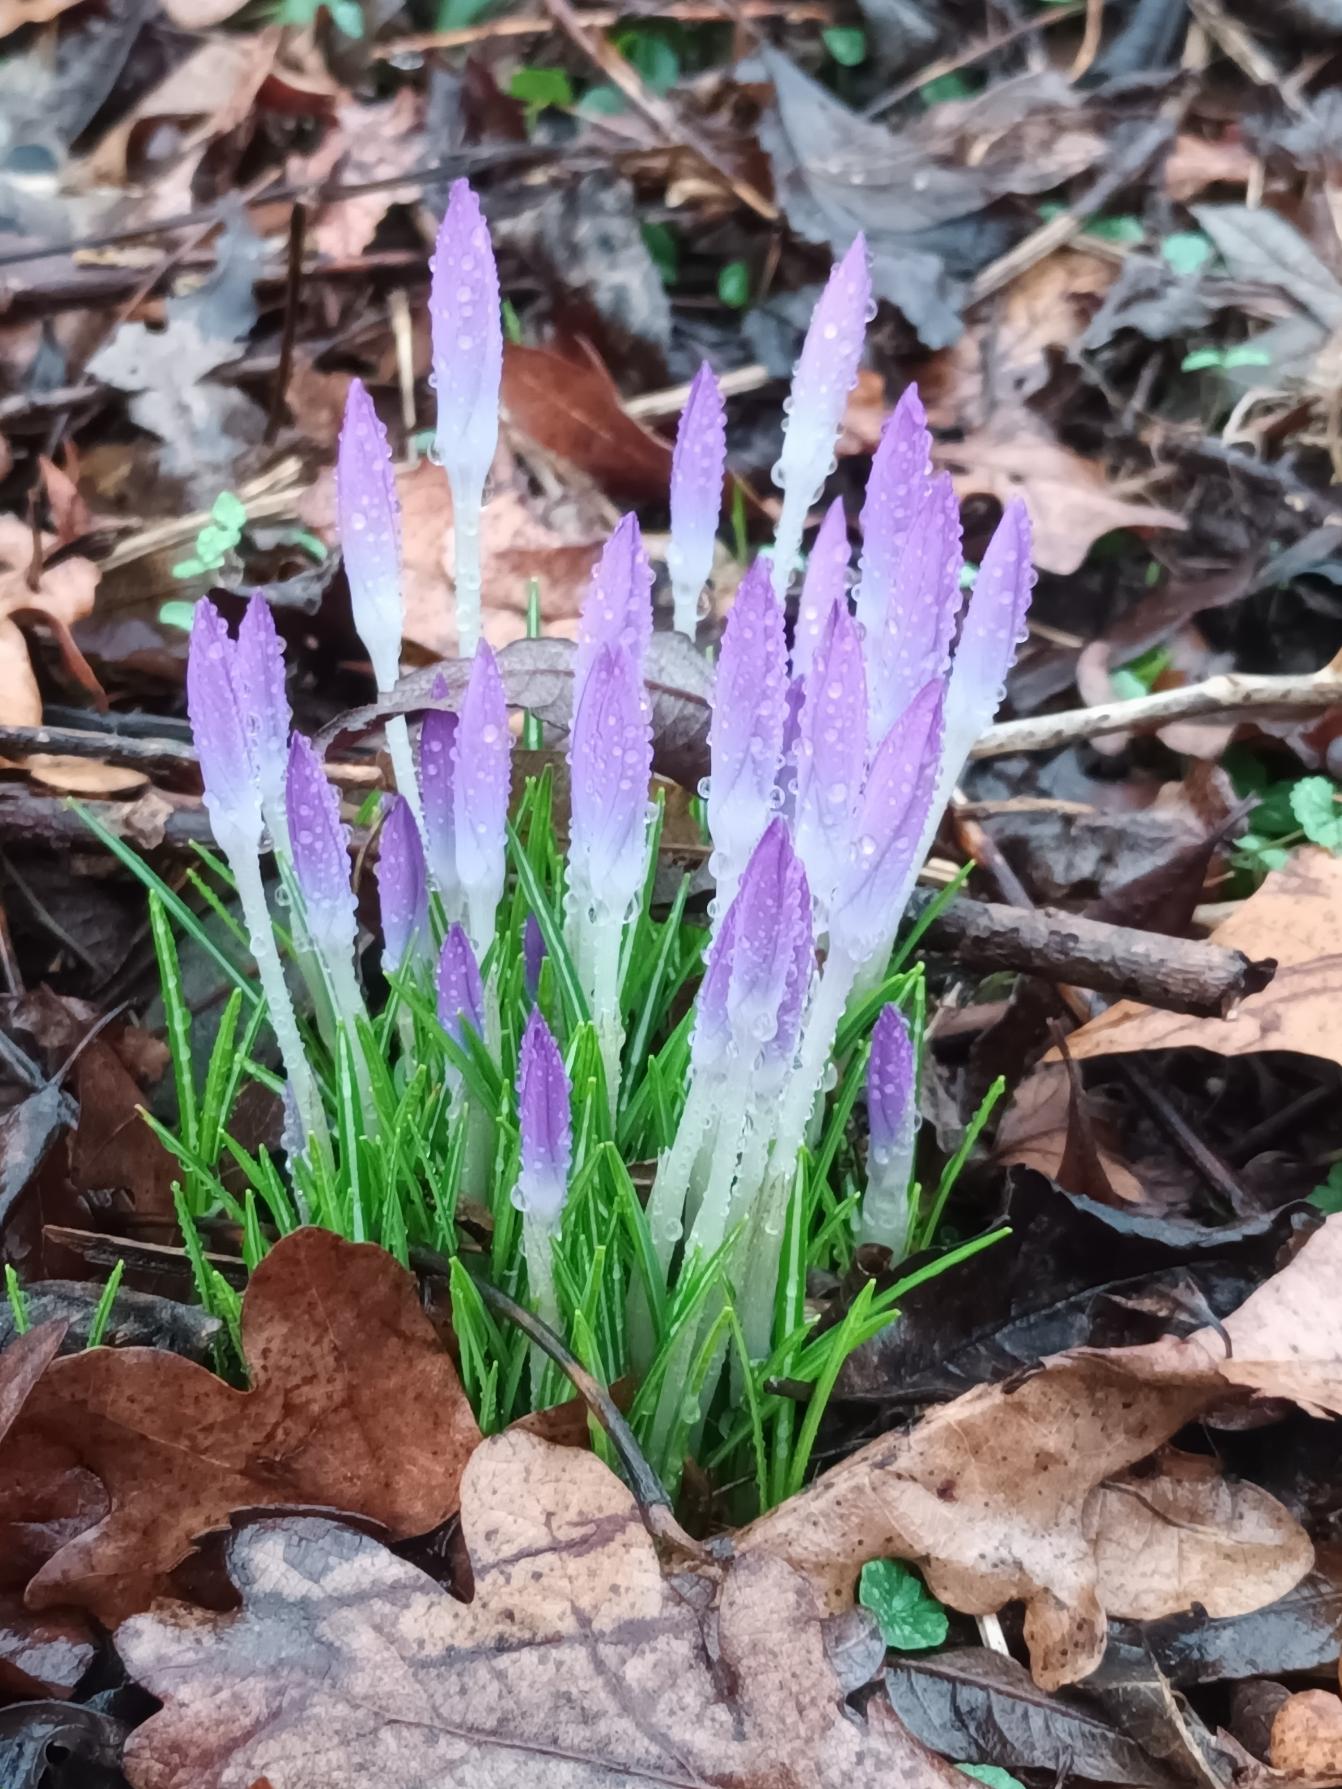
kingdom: Plantae
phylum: Tracheophyta
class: Liliopsida
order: Asparagales
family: Iridaceae
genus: Crocus
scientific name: Crocus tommasinianus
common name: Sne-krokus
